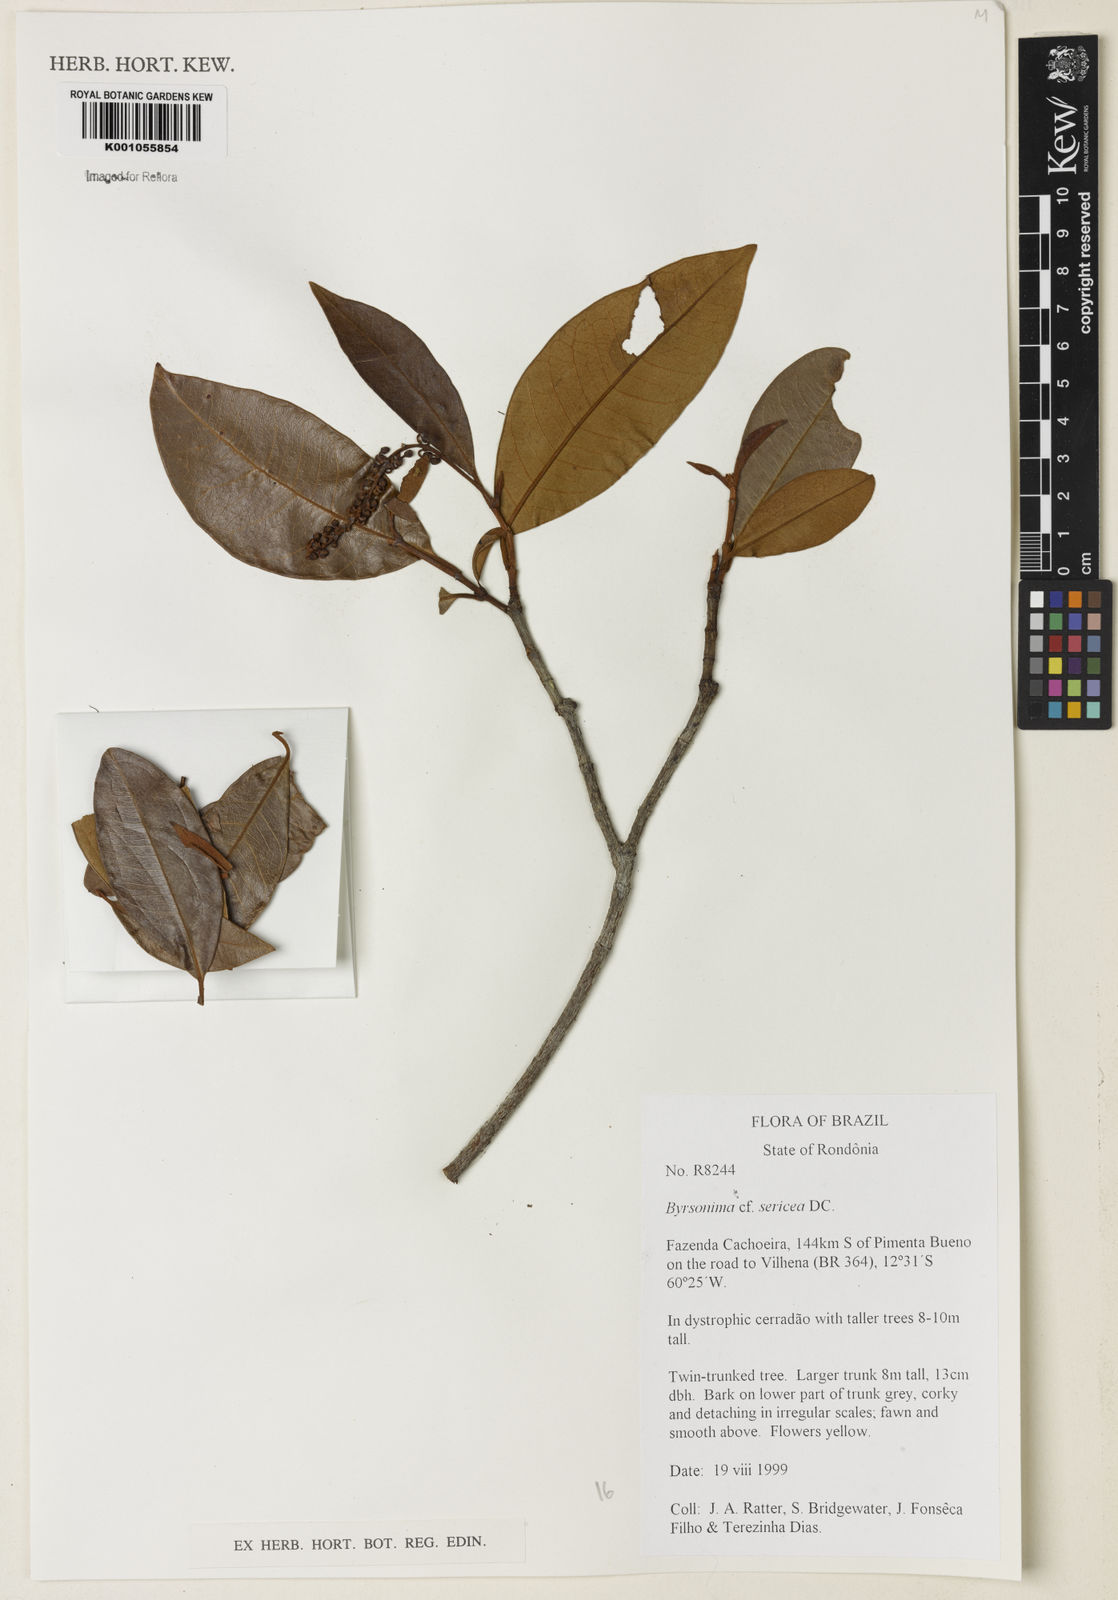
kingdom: Plantae
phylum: Tracheophyta
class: Magnoliopsida
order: Malpighiales
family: Malpighiaceae
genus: Byrsonima
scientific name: Byrsonima sericea
